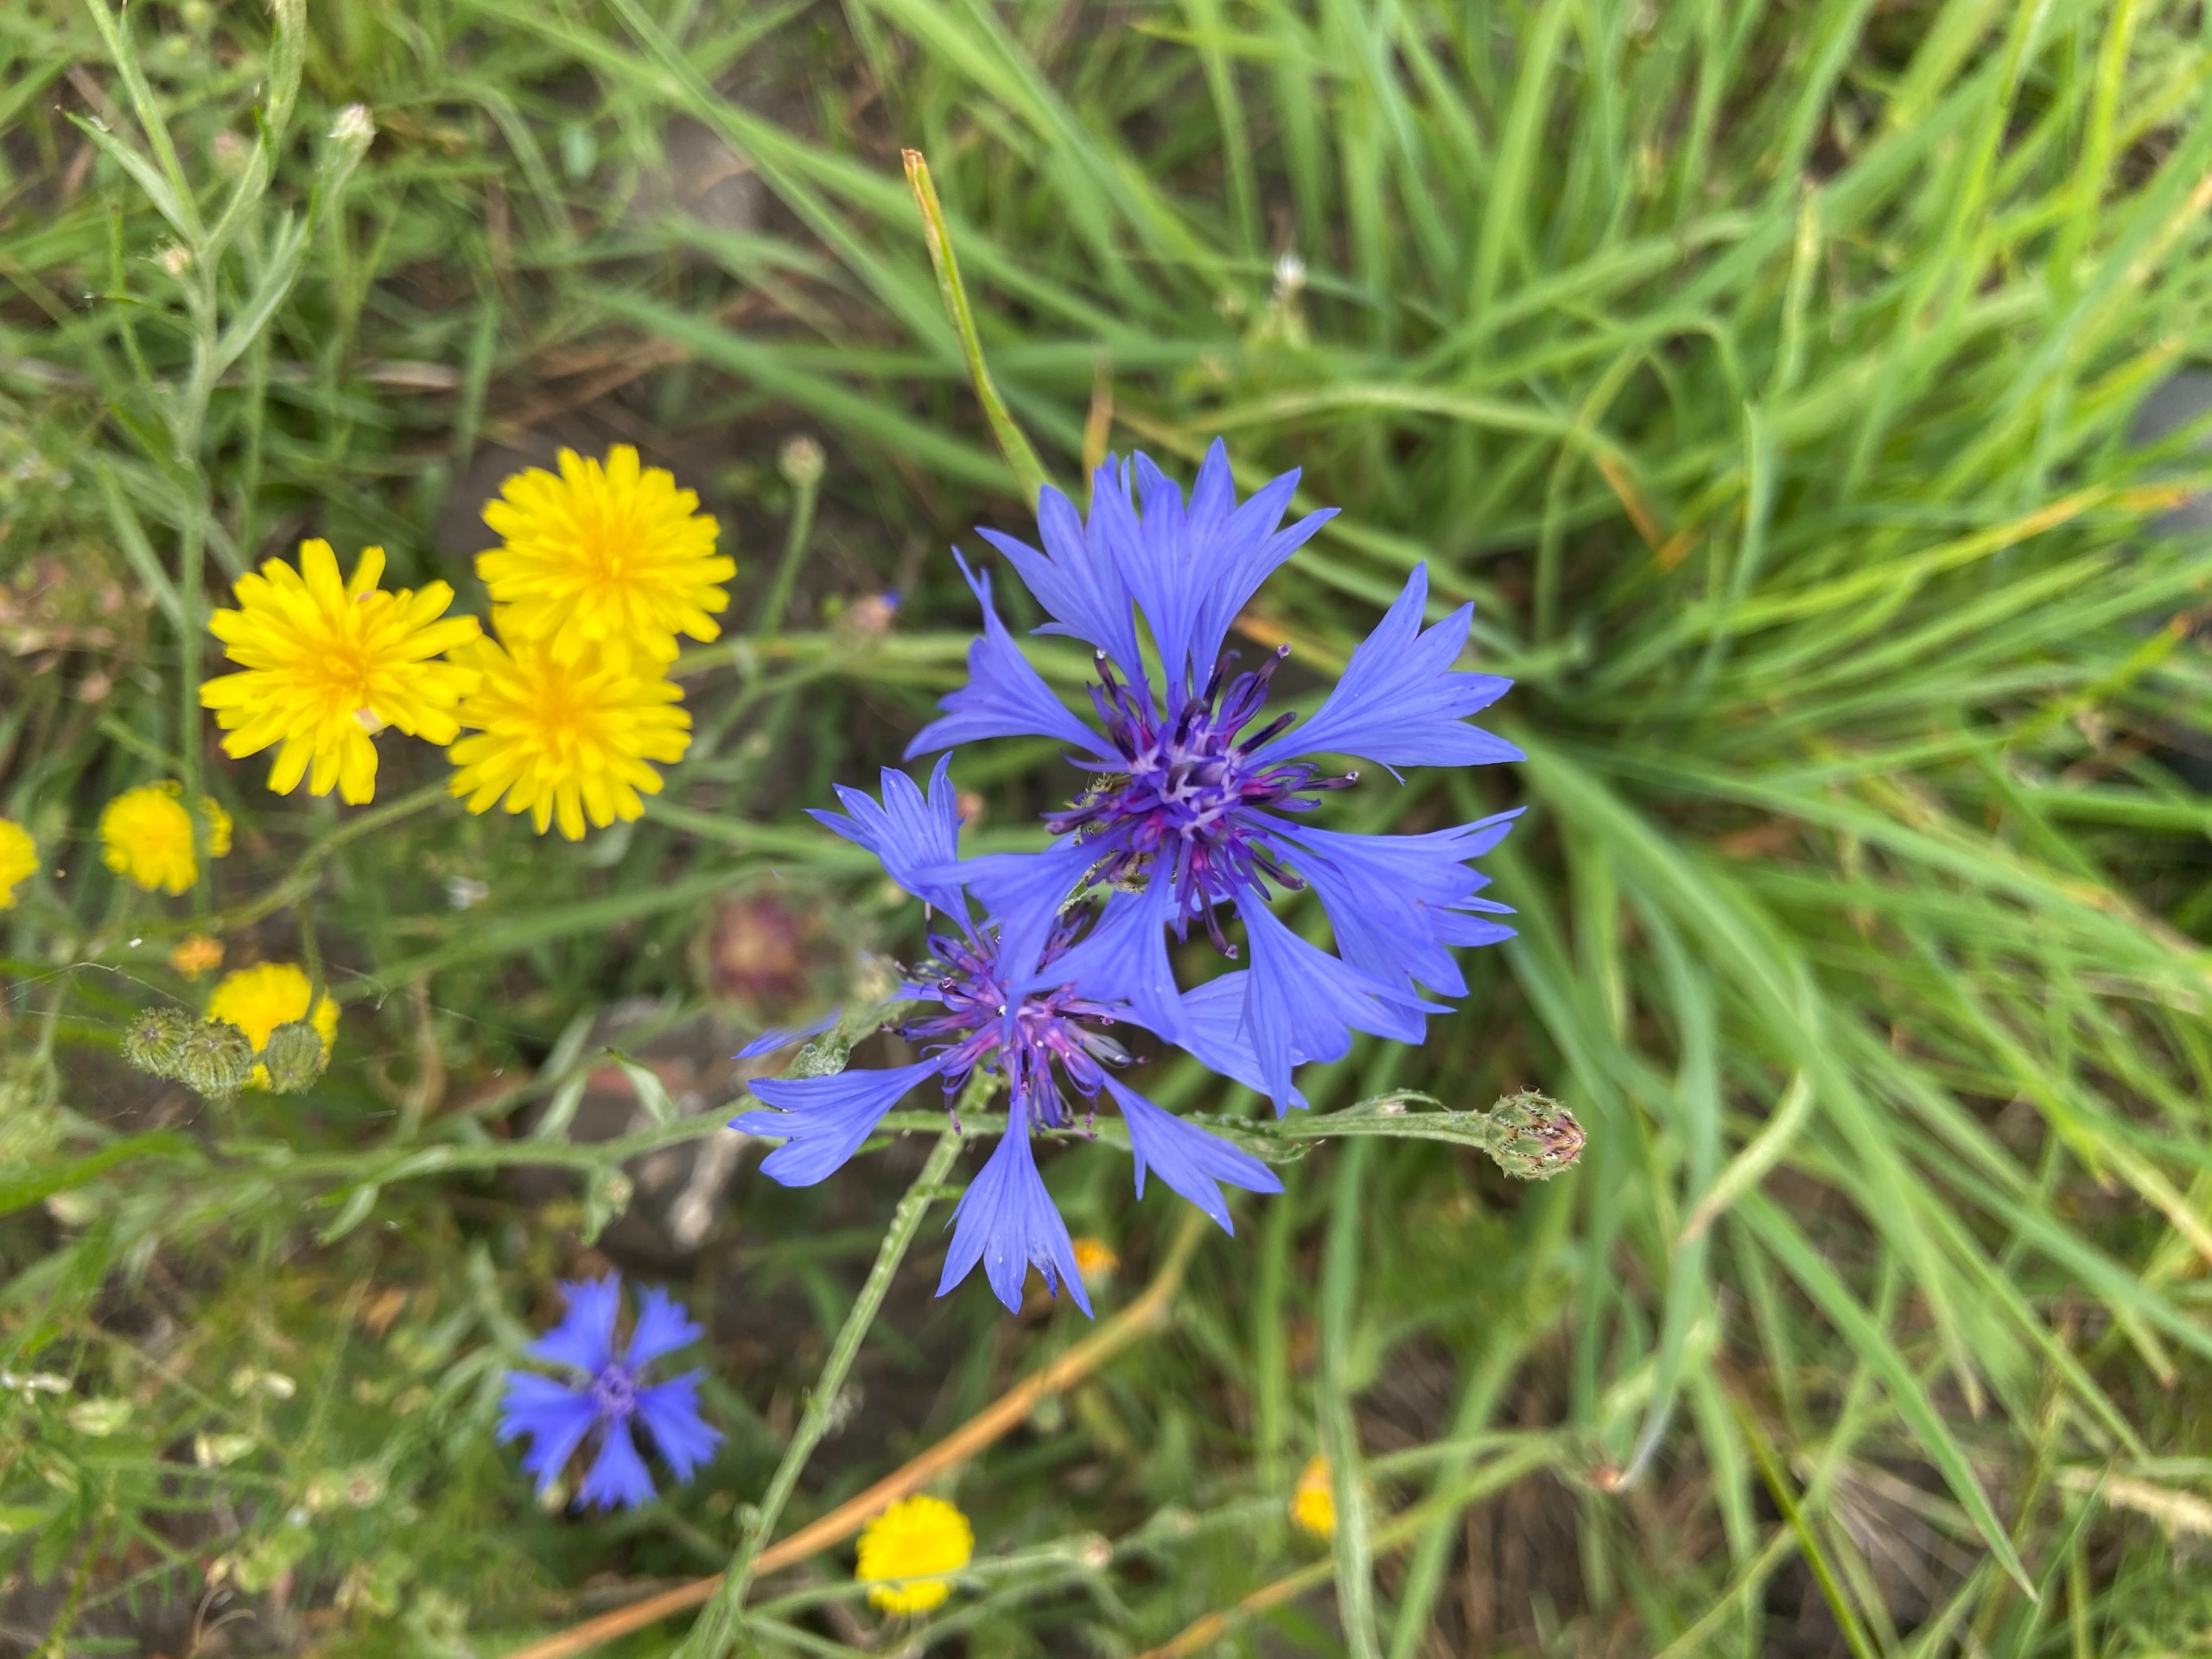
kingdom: Plantae
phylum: Tracheophyta
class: Magnoliopsida
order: Asterales
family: Asteraceae
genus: Centaurea
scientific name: Centaurea cyanus
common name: Kornblomst
